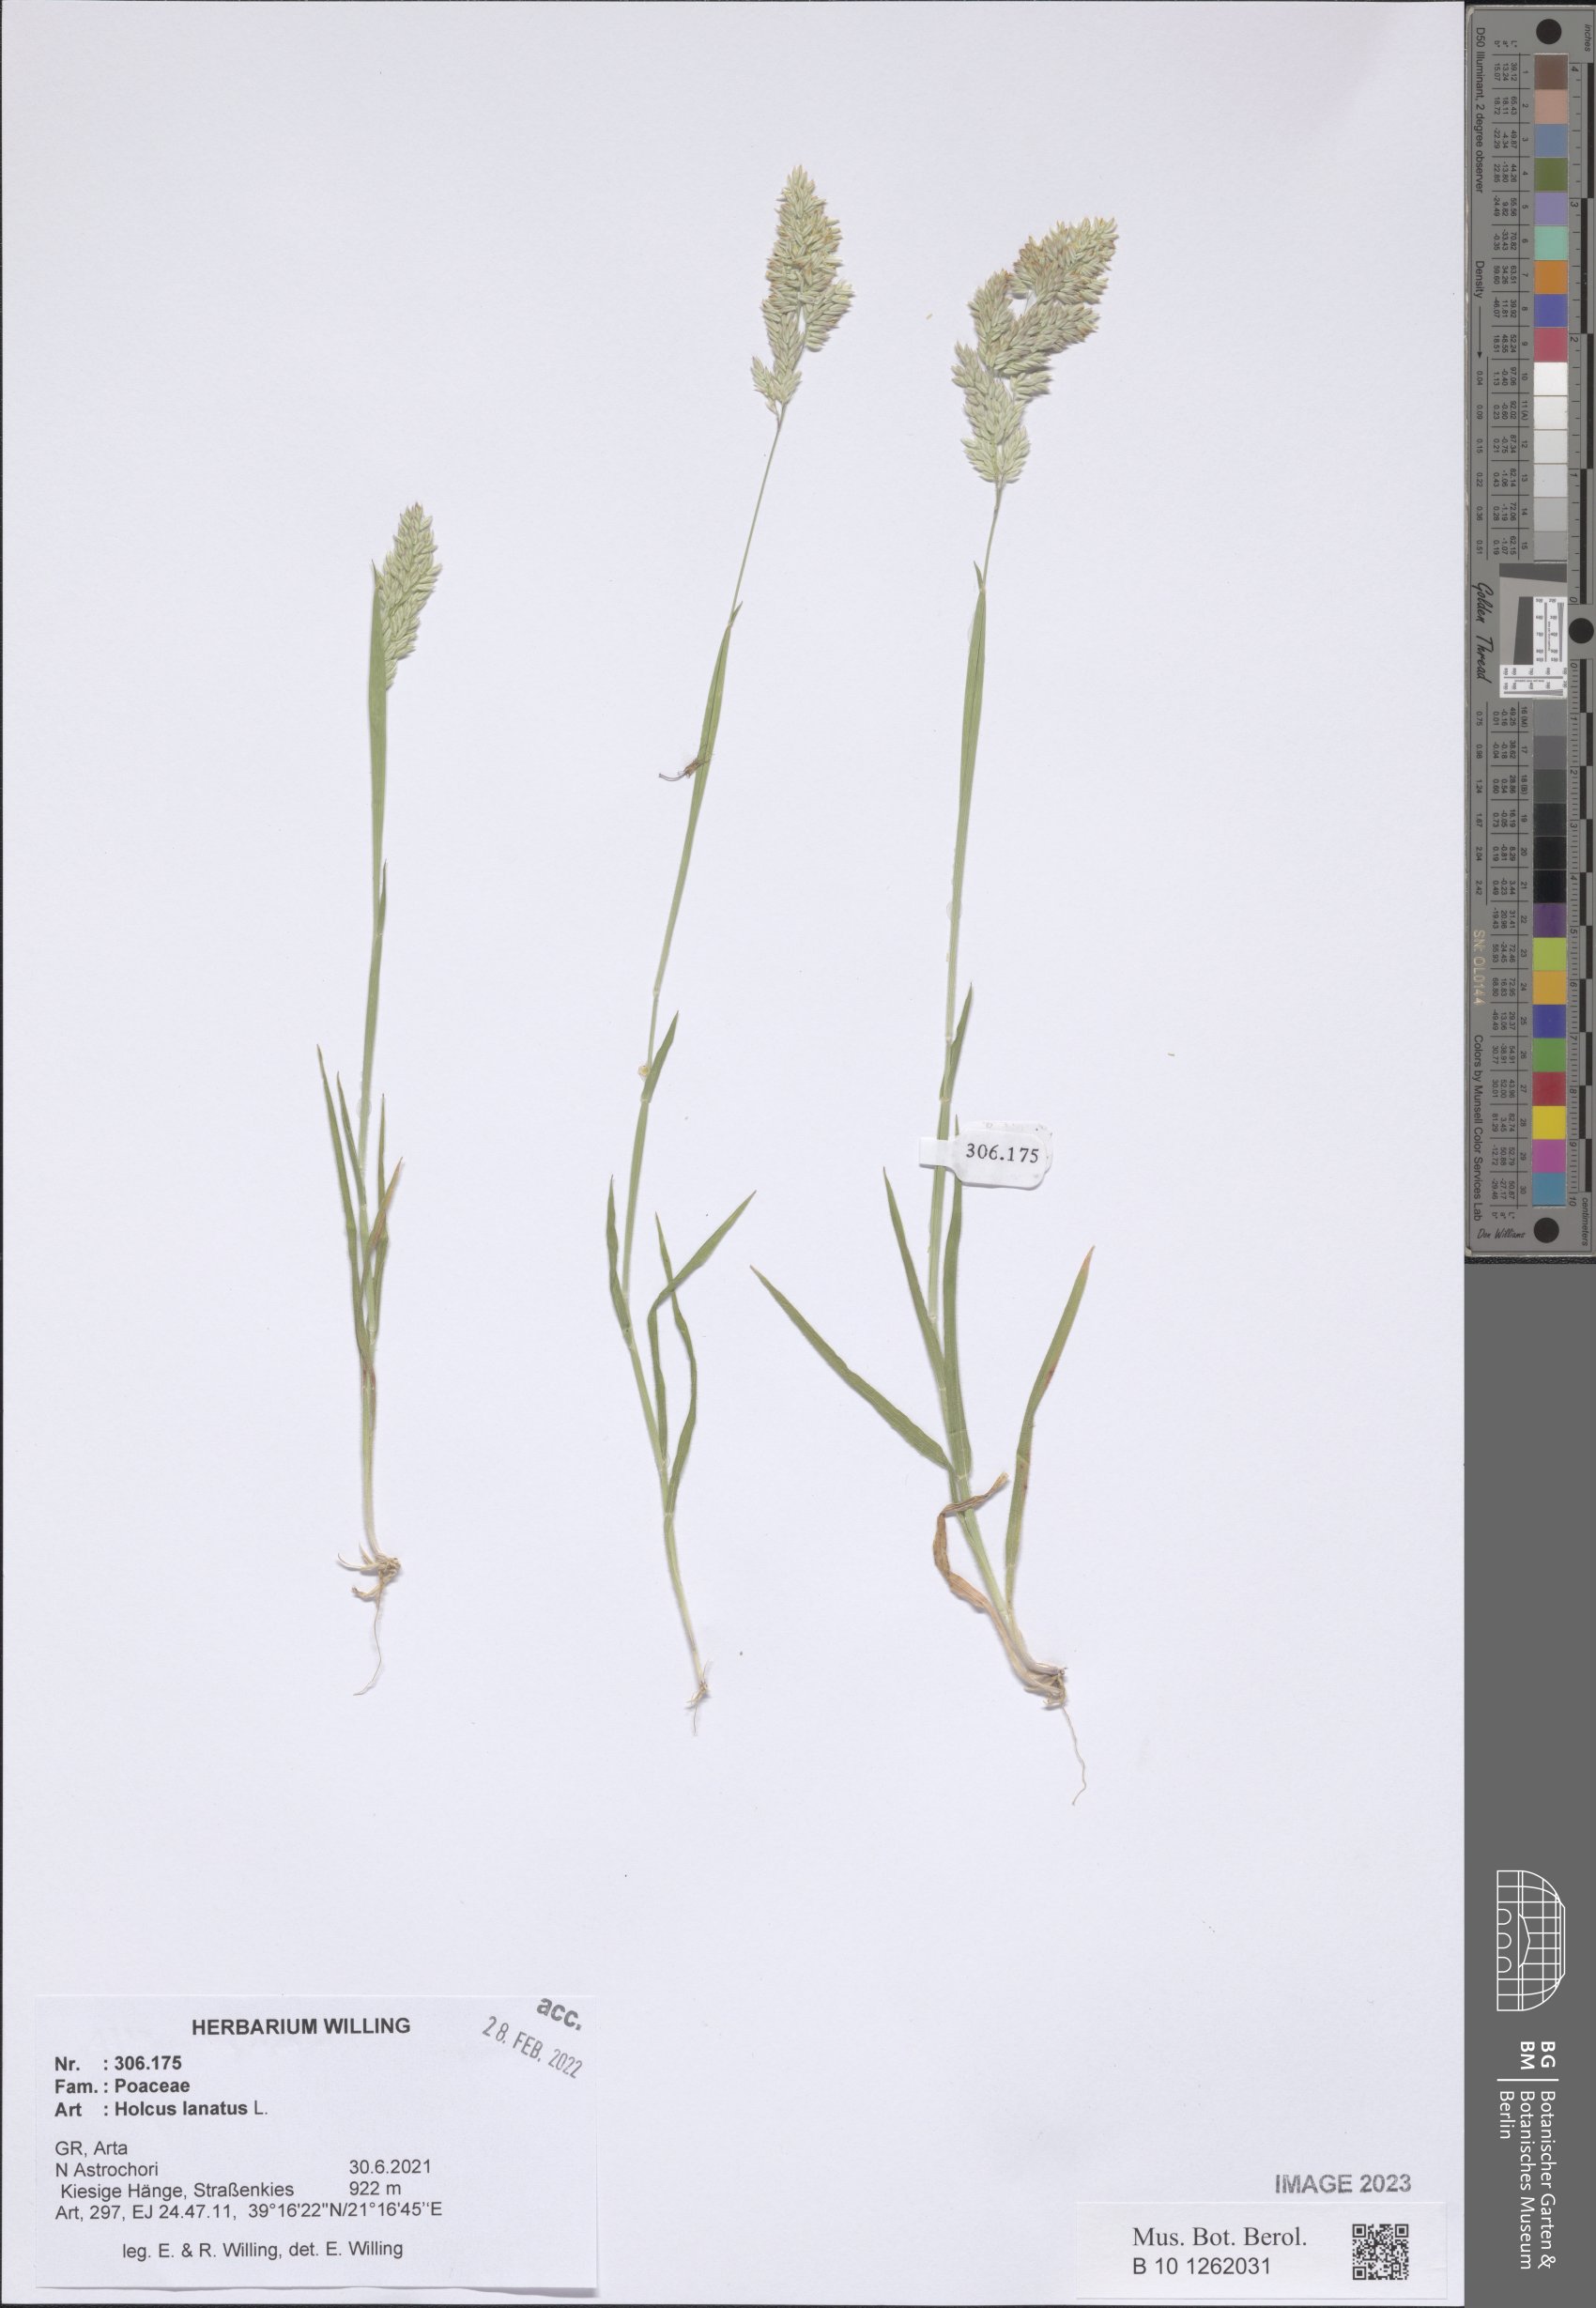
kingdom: Plantae
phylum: Tracheophyta
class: Liliopsida
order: Poales
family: Poaceae
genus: Holcus
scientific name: Holcus lanatus
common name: Yorkshire-fog
